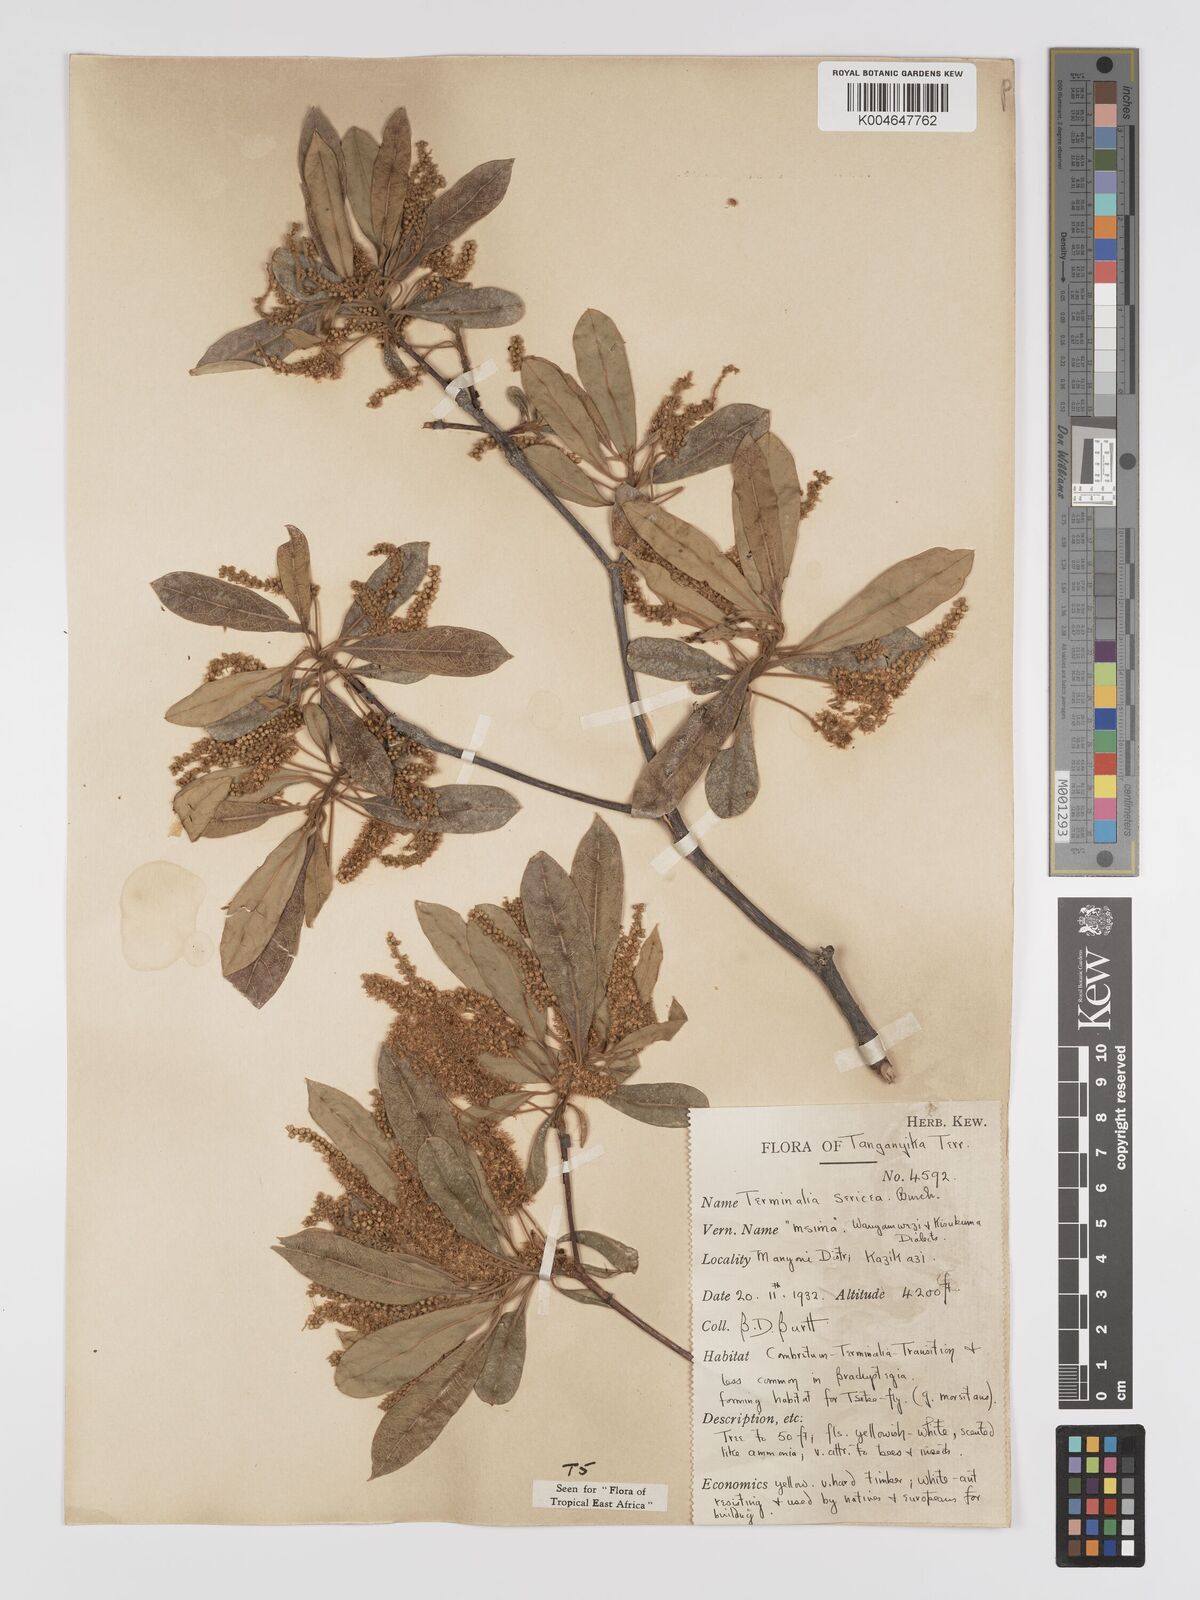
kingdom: Plantae
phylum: Tracheophyta
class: Magnoliopsida
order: Myrtales
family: Combretaceae
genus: Terminalia
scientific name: Terminalia
